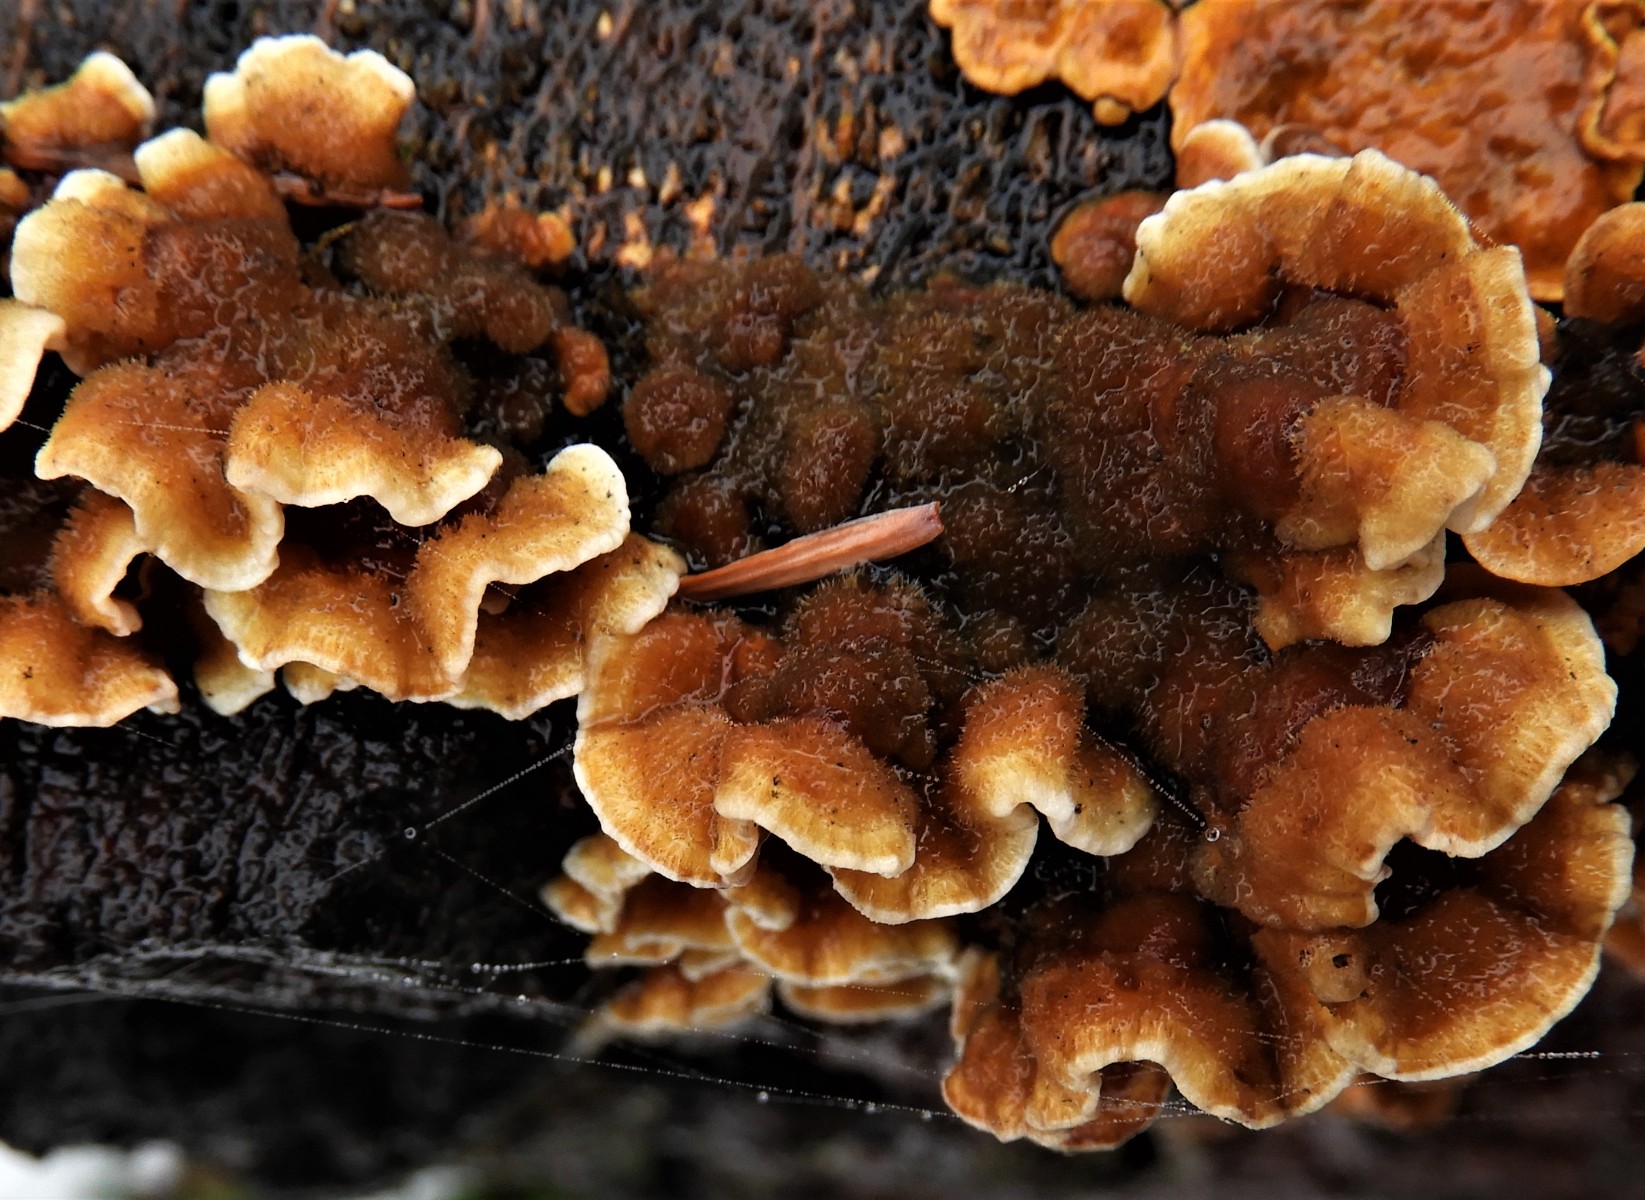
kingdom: Fungi
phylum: Basidiomycota
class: Agaricomycetes
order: Russulales
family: Stereaceae
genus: Stereum
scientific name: Stereum hirsutum
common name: håret lædersvamp
